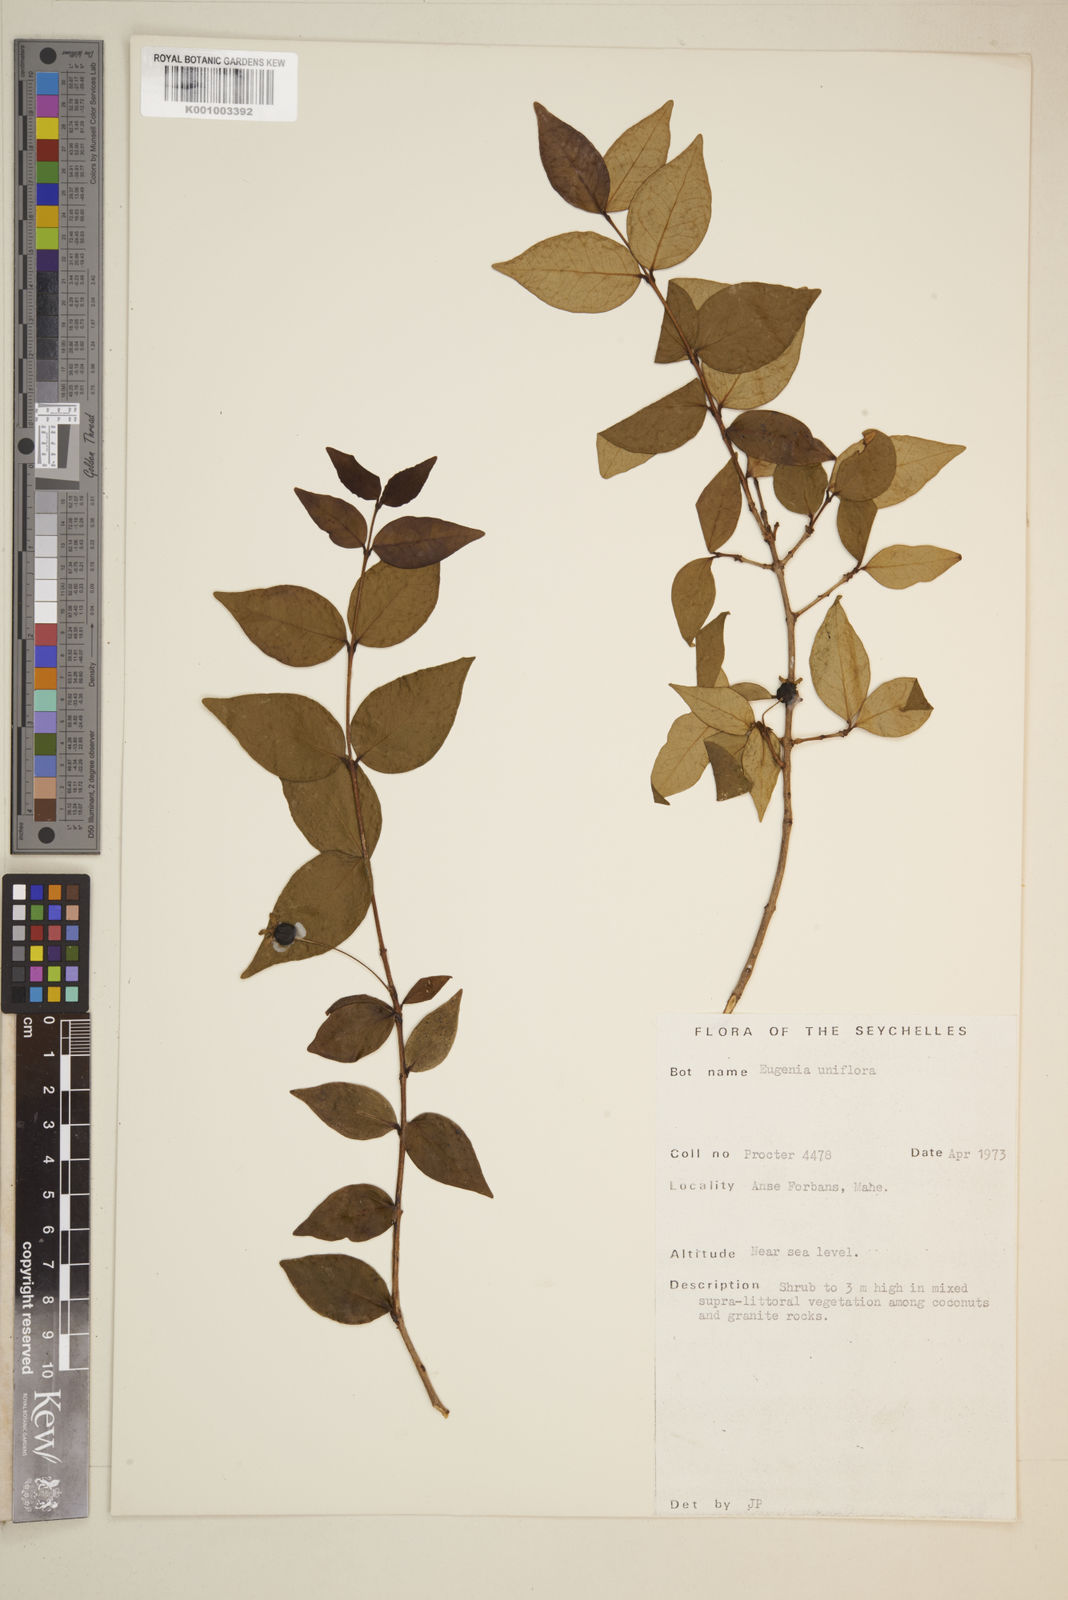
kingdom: Plantae
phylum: Tracheophyta
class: Magnoliopsida
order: Myrtales
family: Myrtaceae
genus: Eugenia
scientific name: Eugenia uniflora
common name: Surinam cherry
